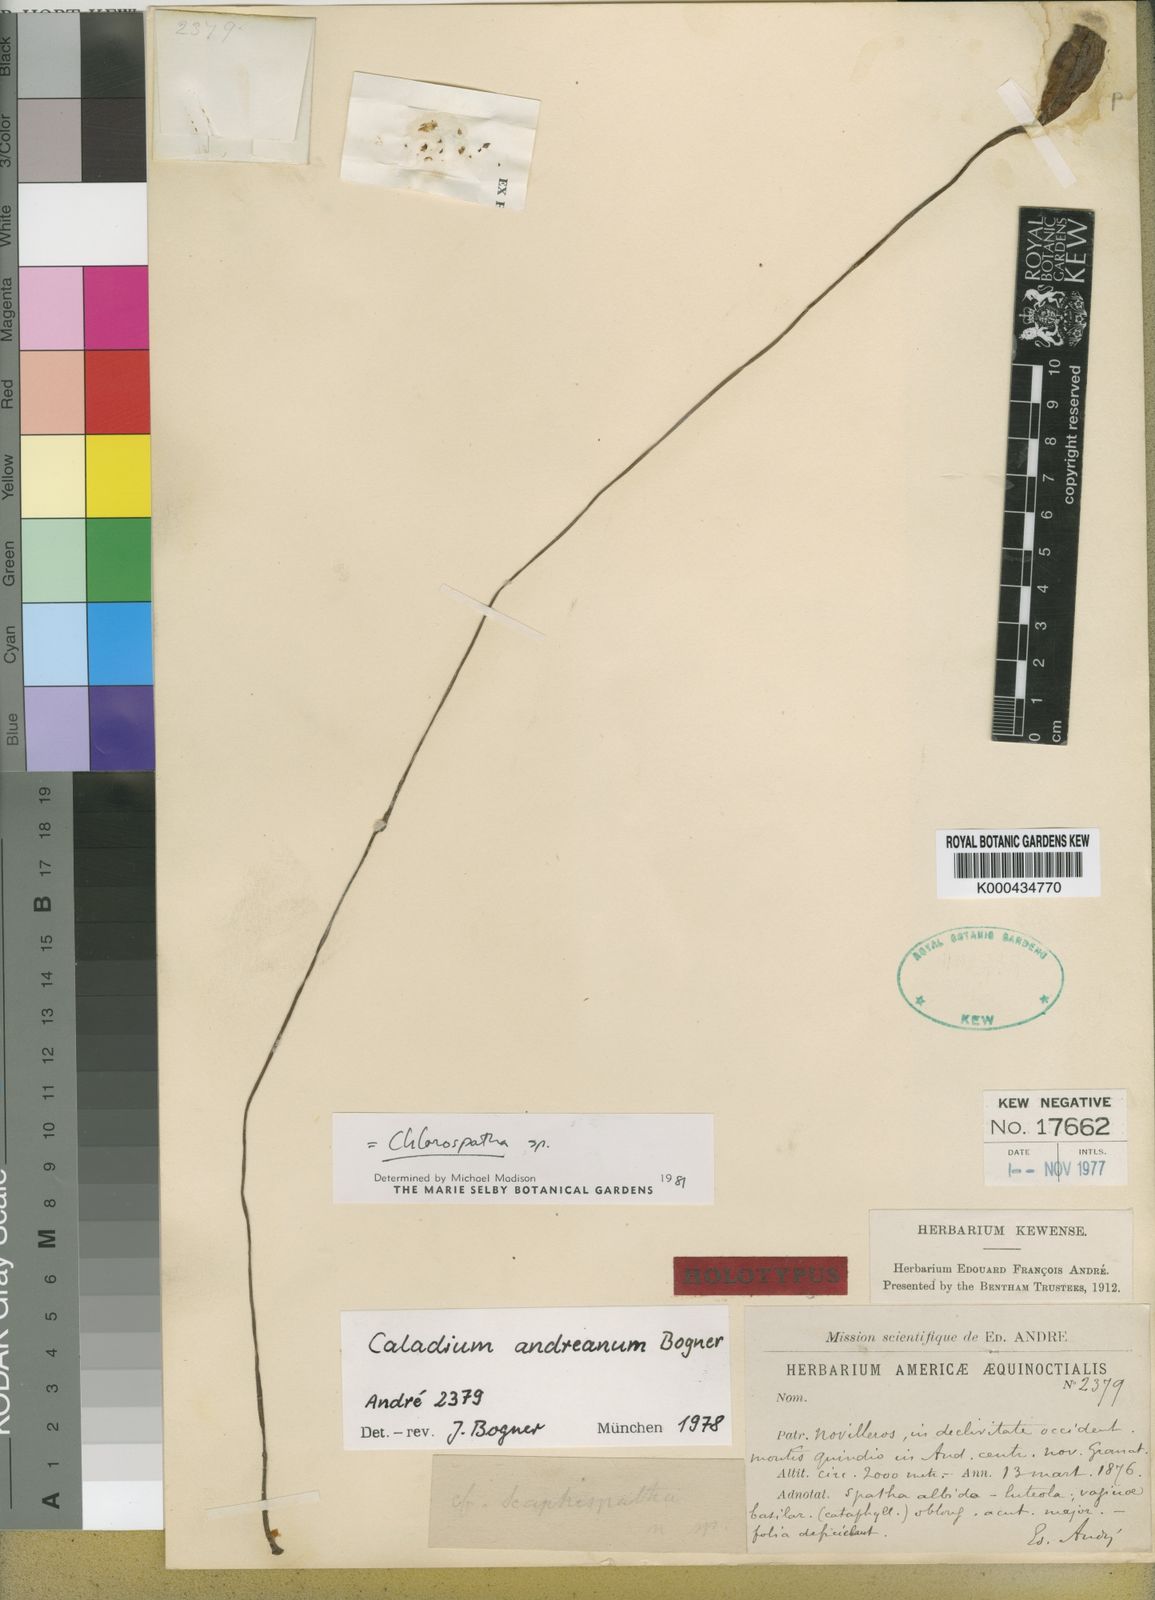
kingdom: Plantae
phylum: Tracheophyta
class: Liliopsida
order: Alismatales
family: Araceae
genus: Caladium
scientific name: Caladium andreanum
